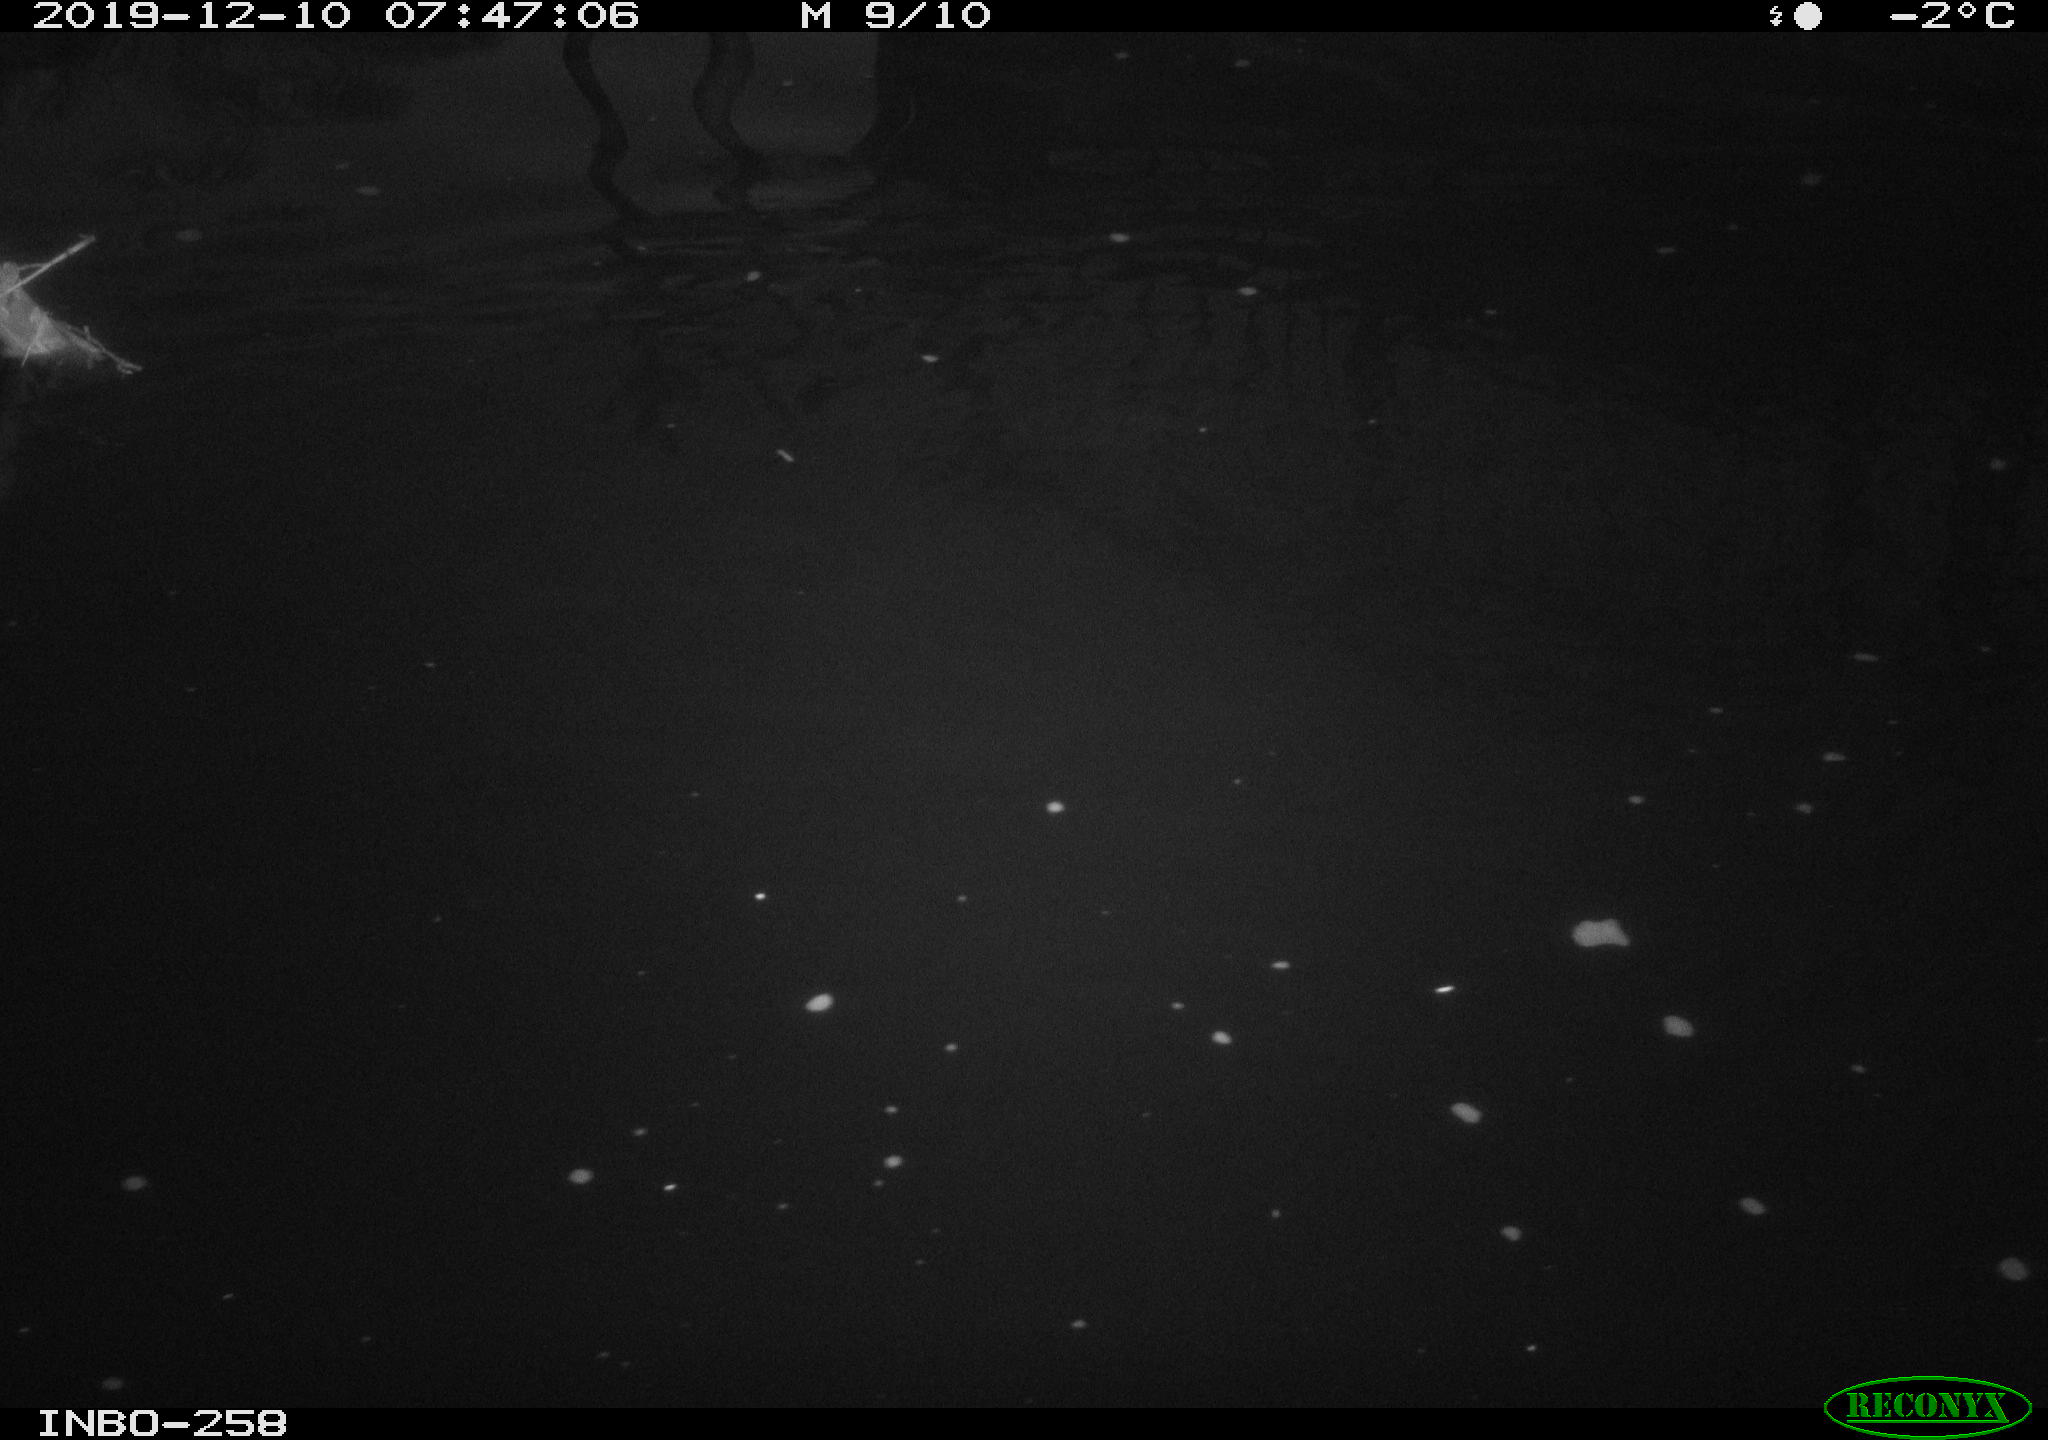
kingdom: Animalia
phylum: Chordata
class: Aves
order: Anseriformes
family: Anatidae
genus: Anas
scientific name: Anas platyrhynchos
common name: Mallard
